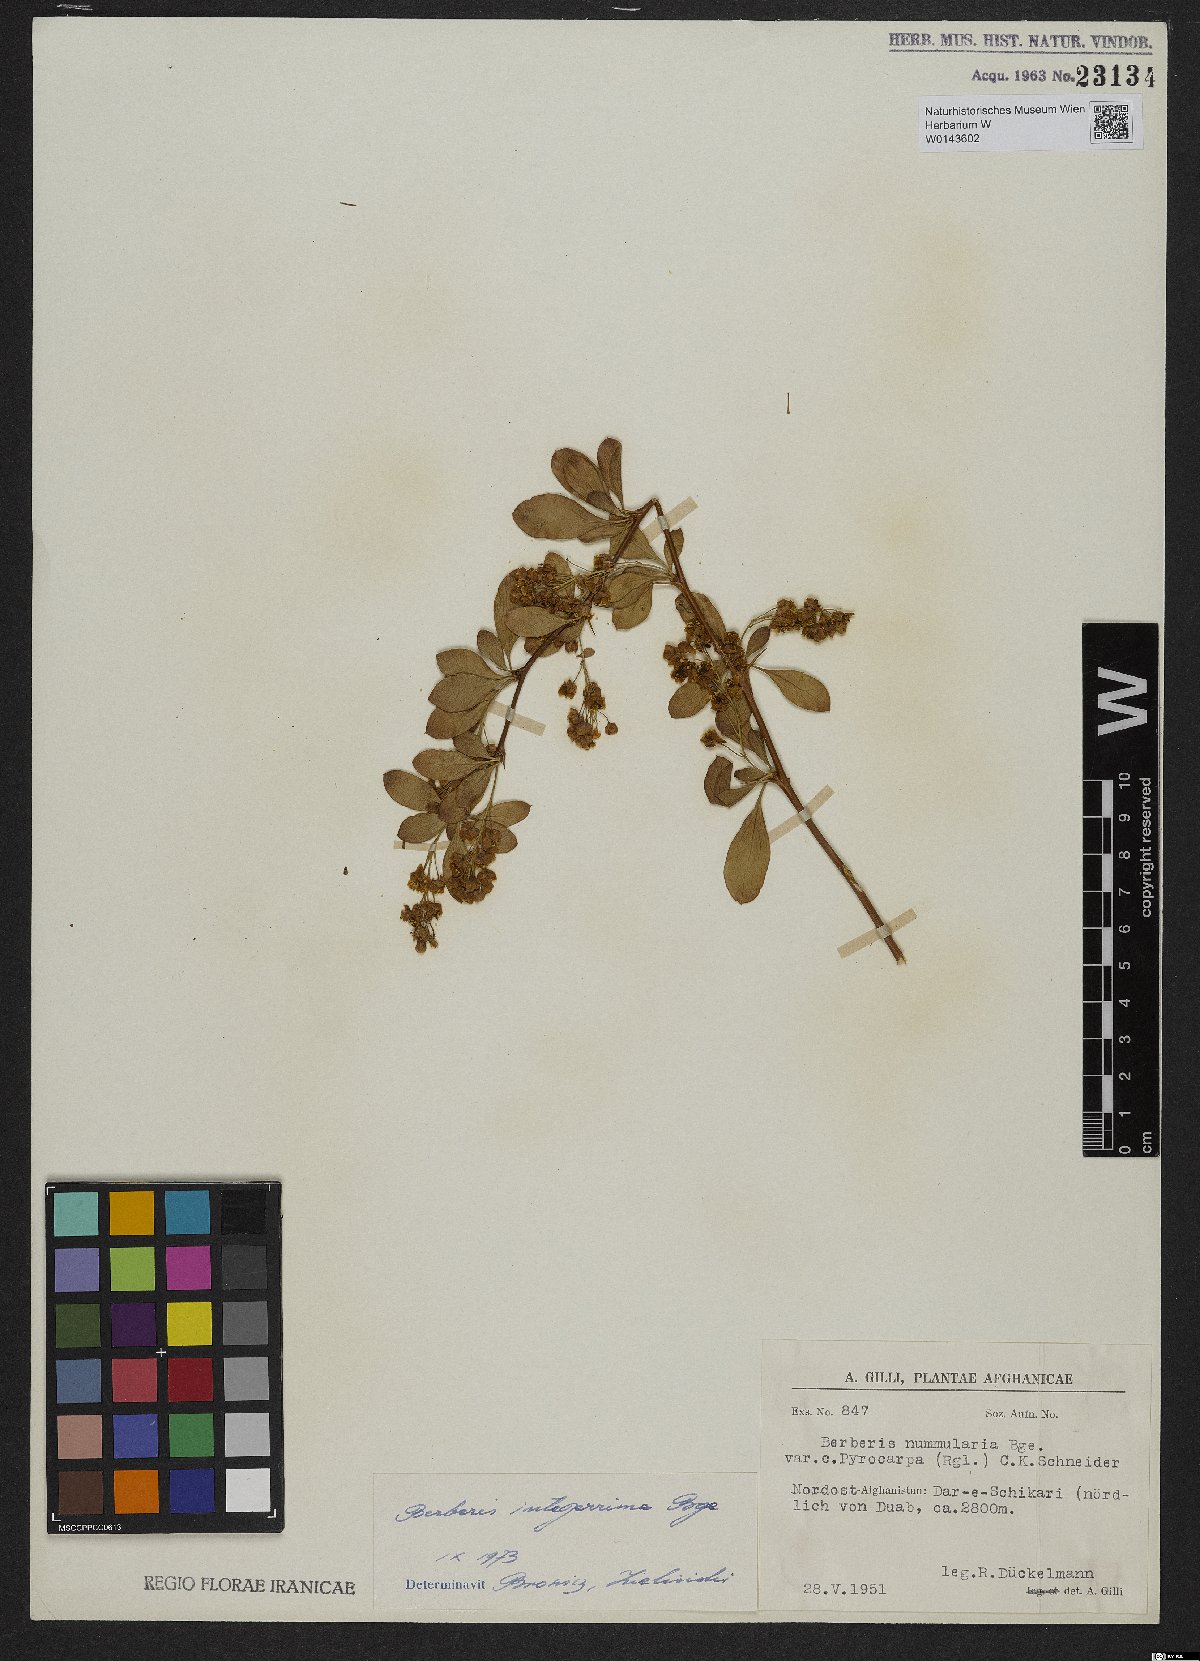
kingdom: Plantae
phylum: Tracheophyta
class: Magnoliopsida
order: Ranunculales
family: Berberidaceae
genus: Berberis
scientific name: Berberis integerrima
